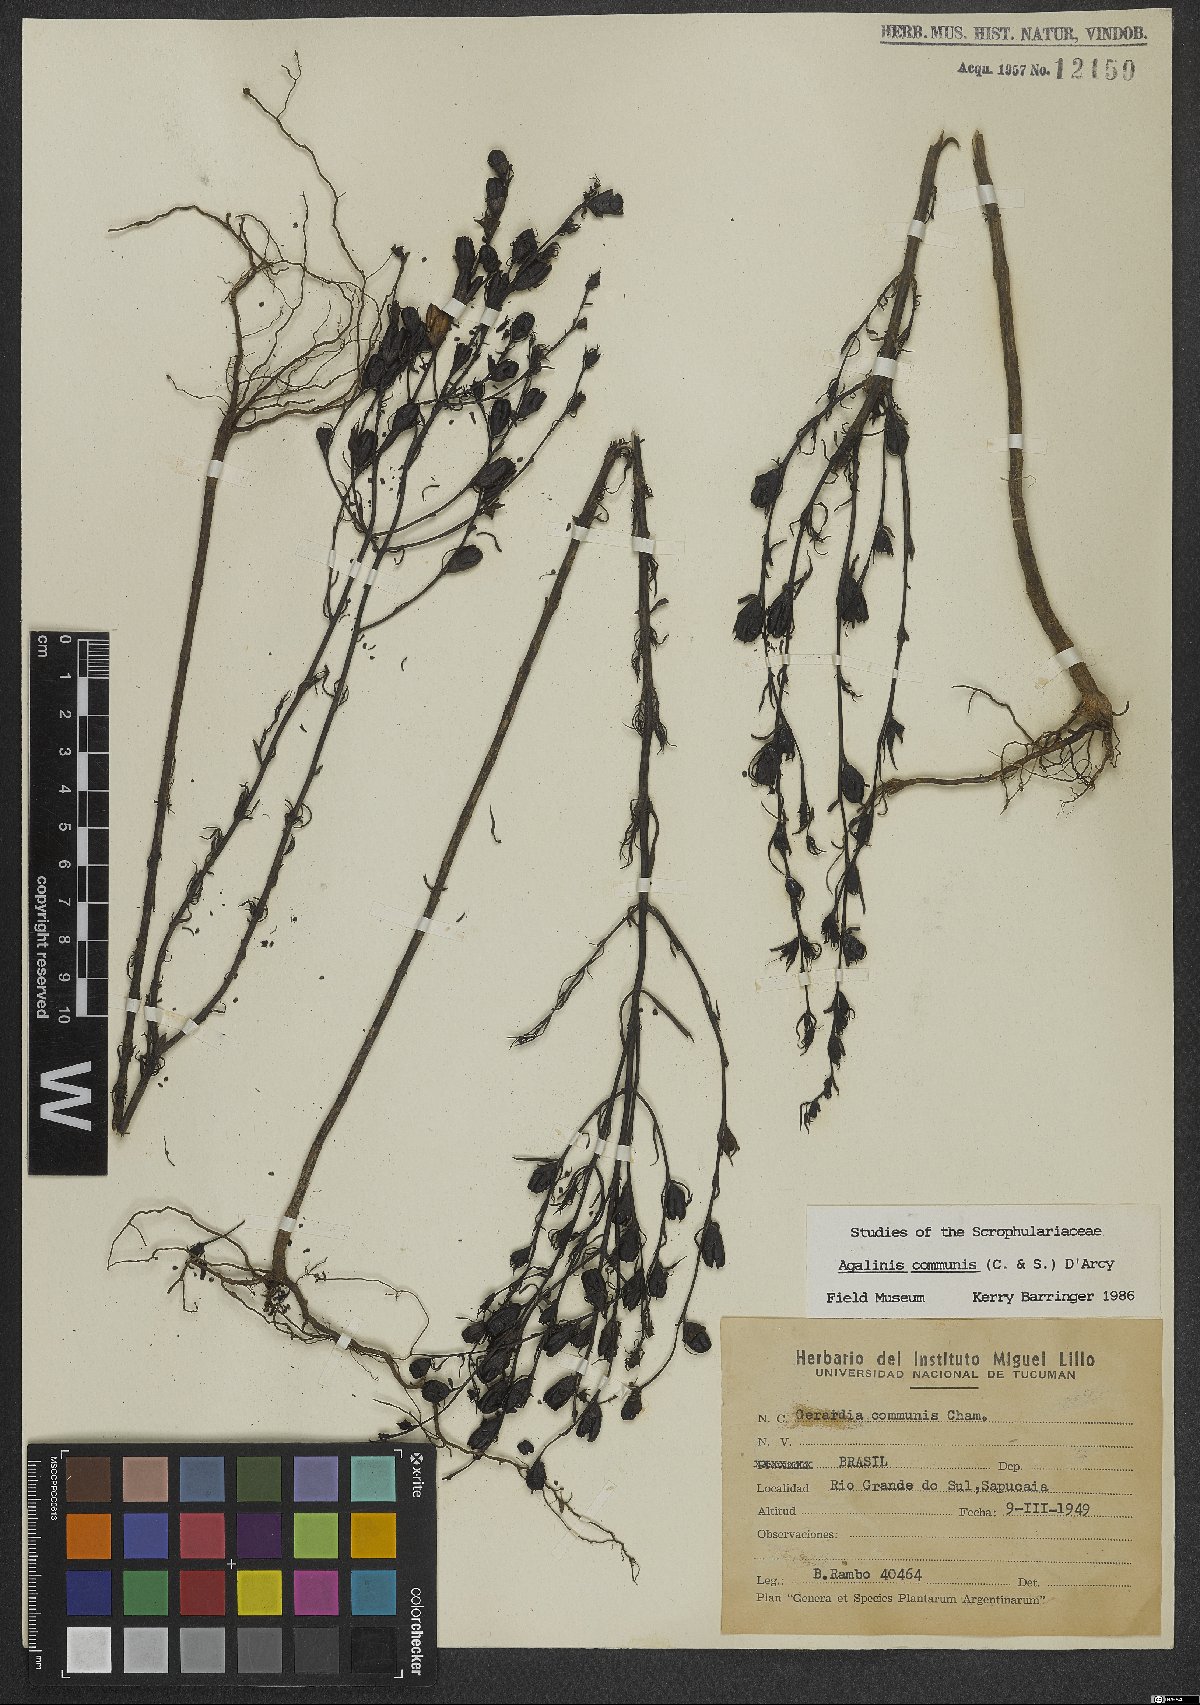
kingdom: Plantae
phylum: Tracheophyta
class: Magnoliopsida
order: Lamiales
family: Scrophulariaceae
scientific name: Scrophulariaceae
